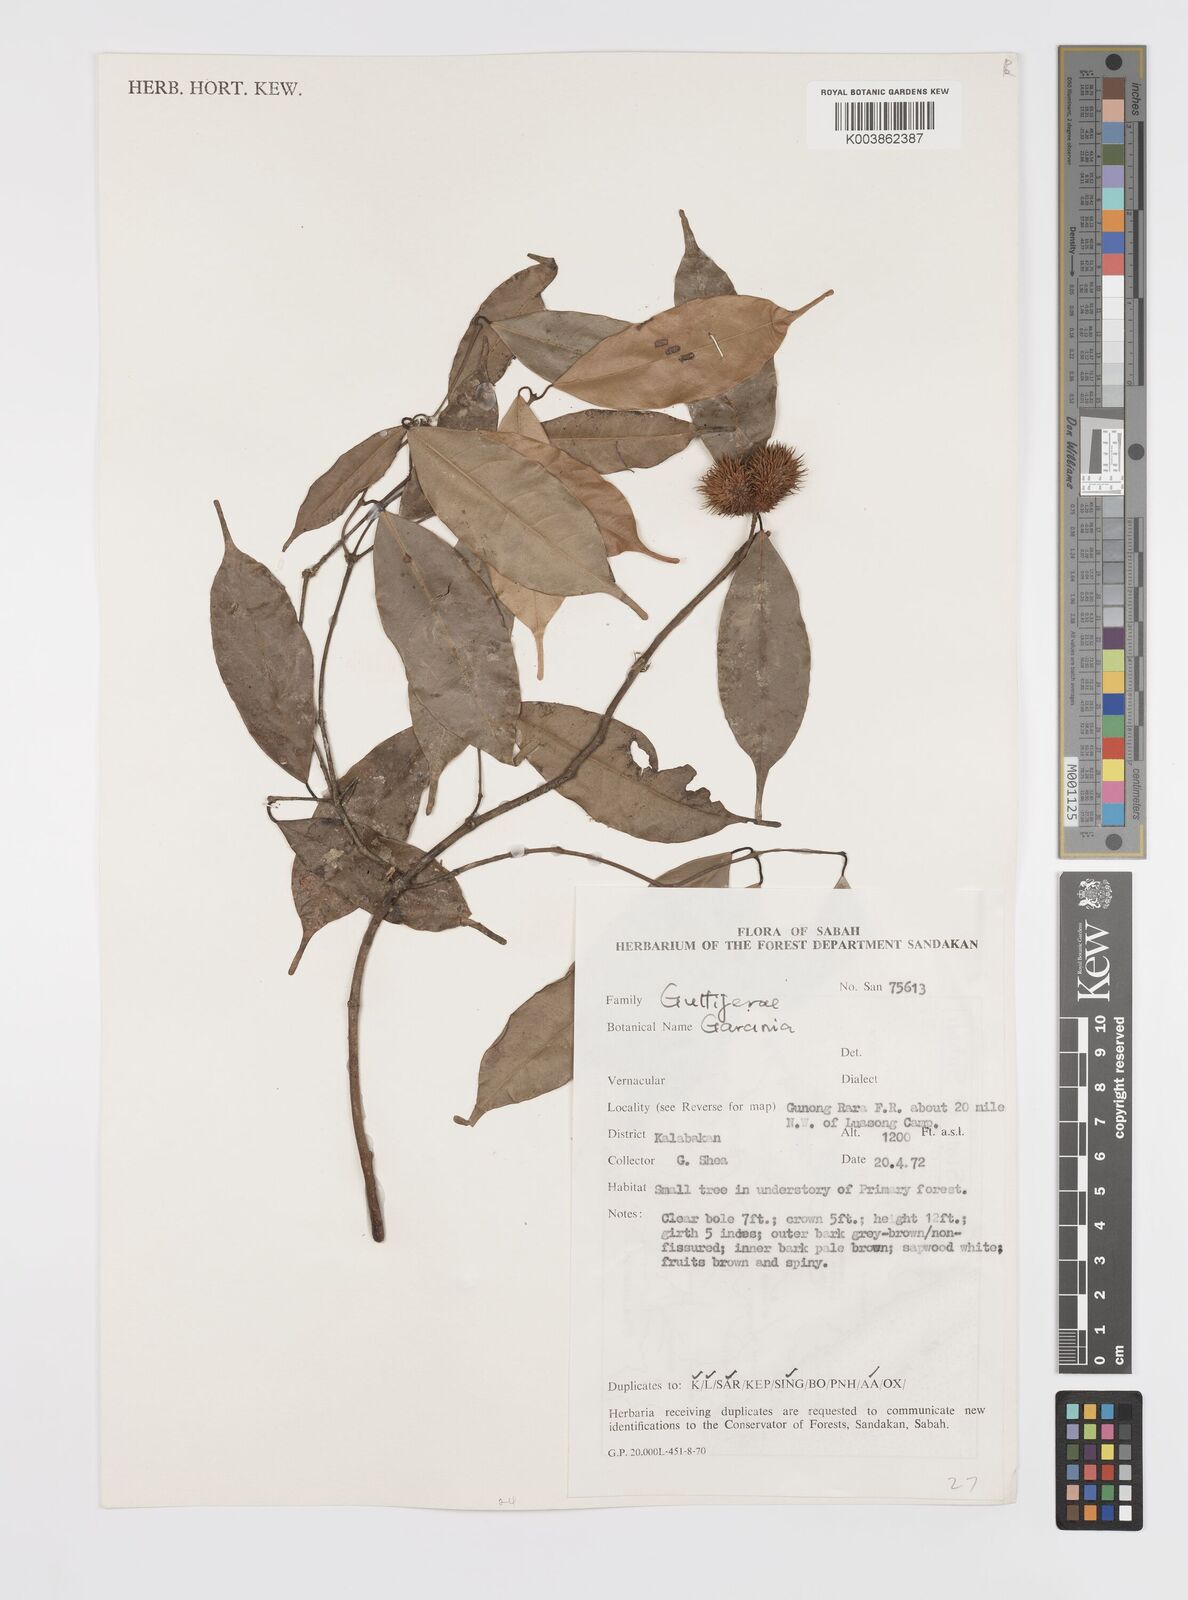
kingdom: Plantae
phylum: Tracheophyta
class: Magnoliopsida
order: Malpighiales
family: Clusiaceae
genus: Garcinia
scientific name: Garcinia
